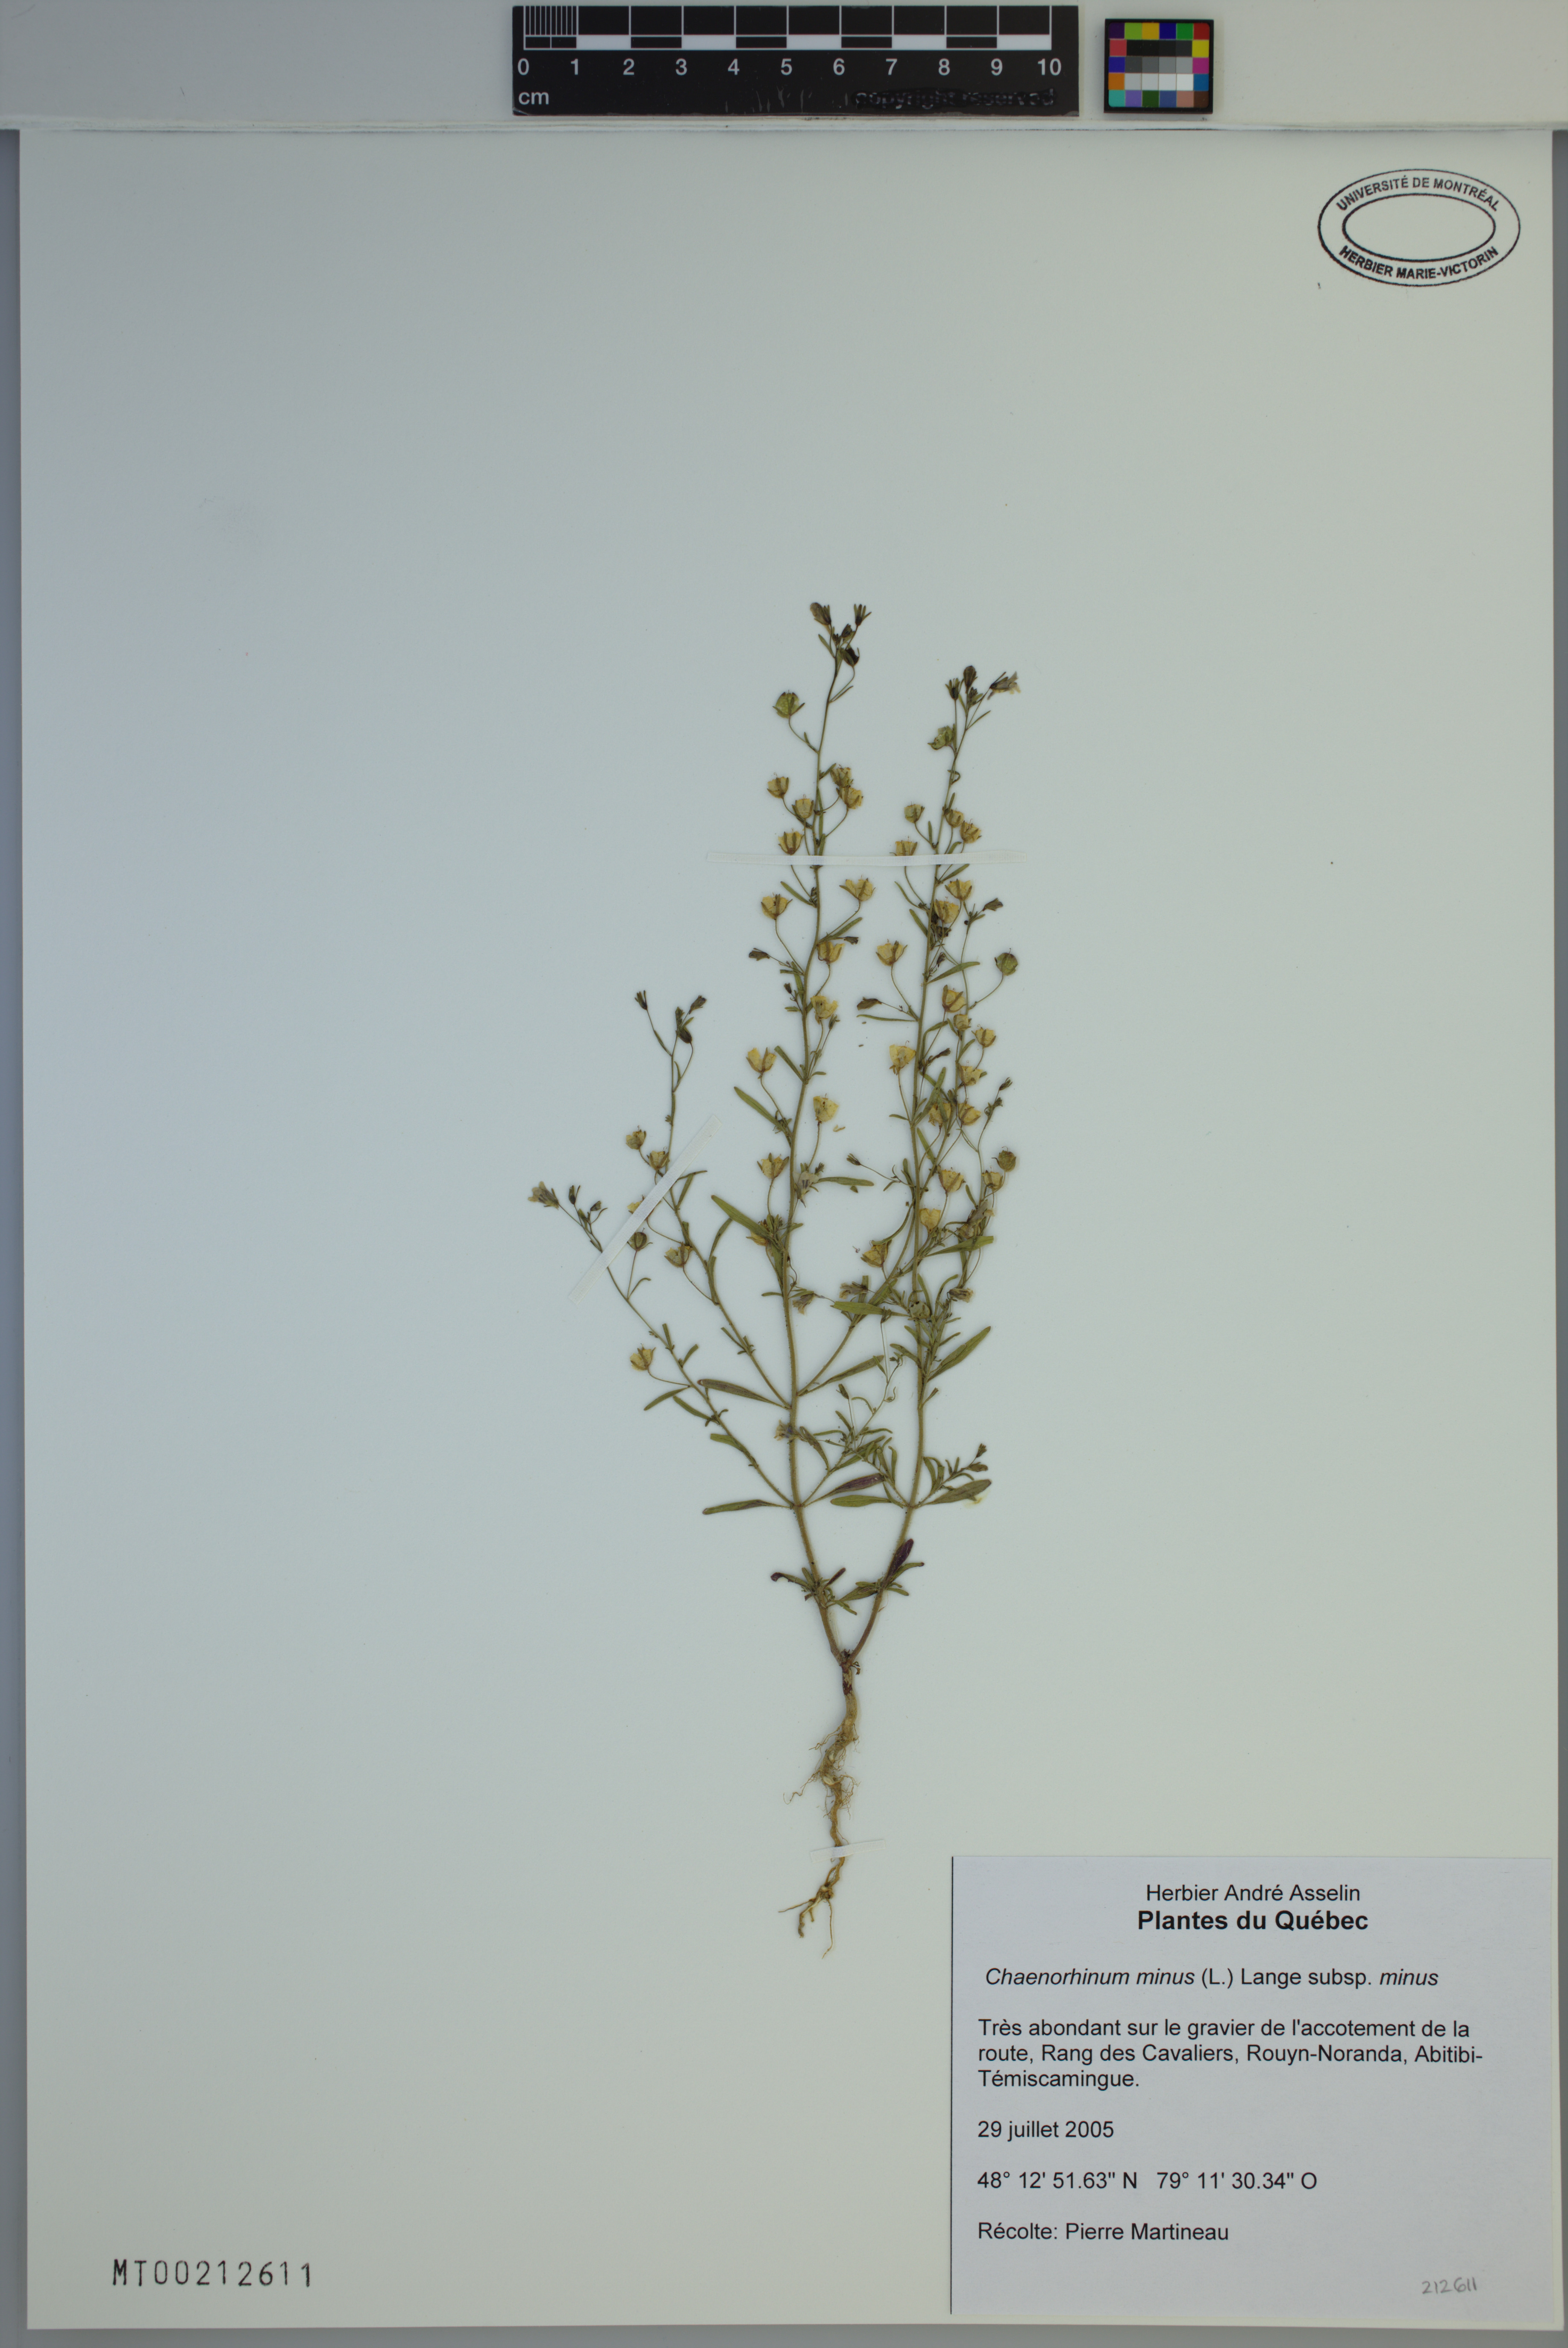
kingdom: Plantae
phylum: Tracheophyta
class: Magnoliopsida
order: Lamiales
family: Plantaginaceae
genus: Chaenorhinum
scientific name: Chaenorhinum minus
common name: Dwarf snapdragon
